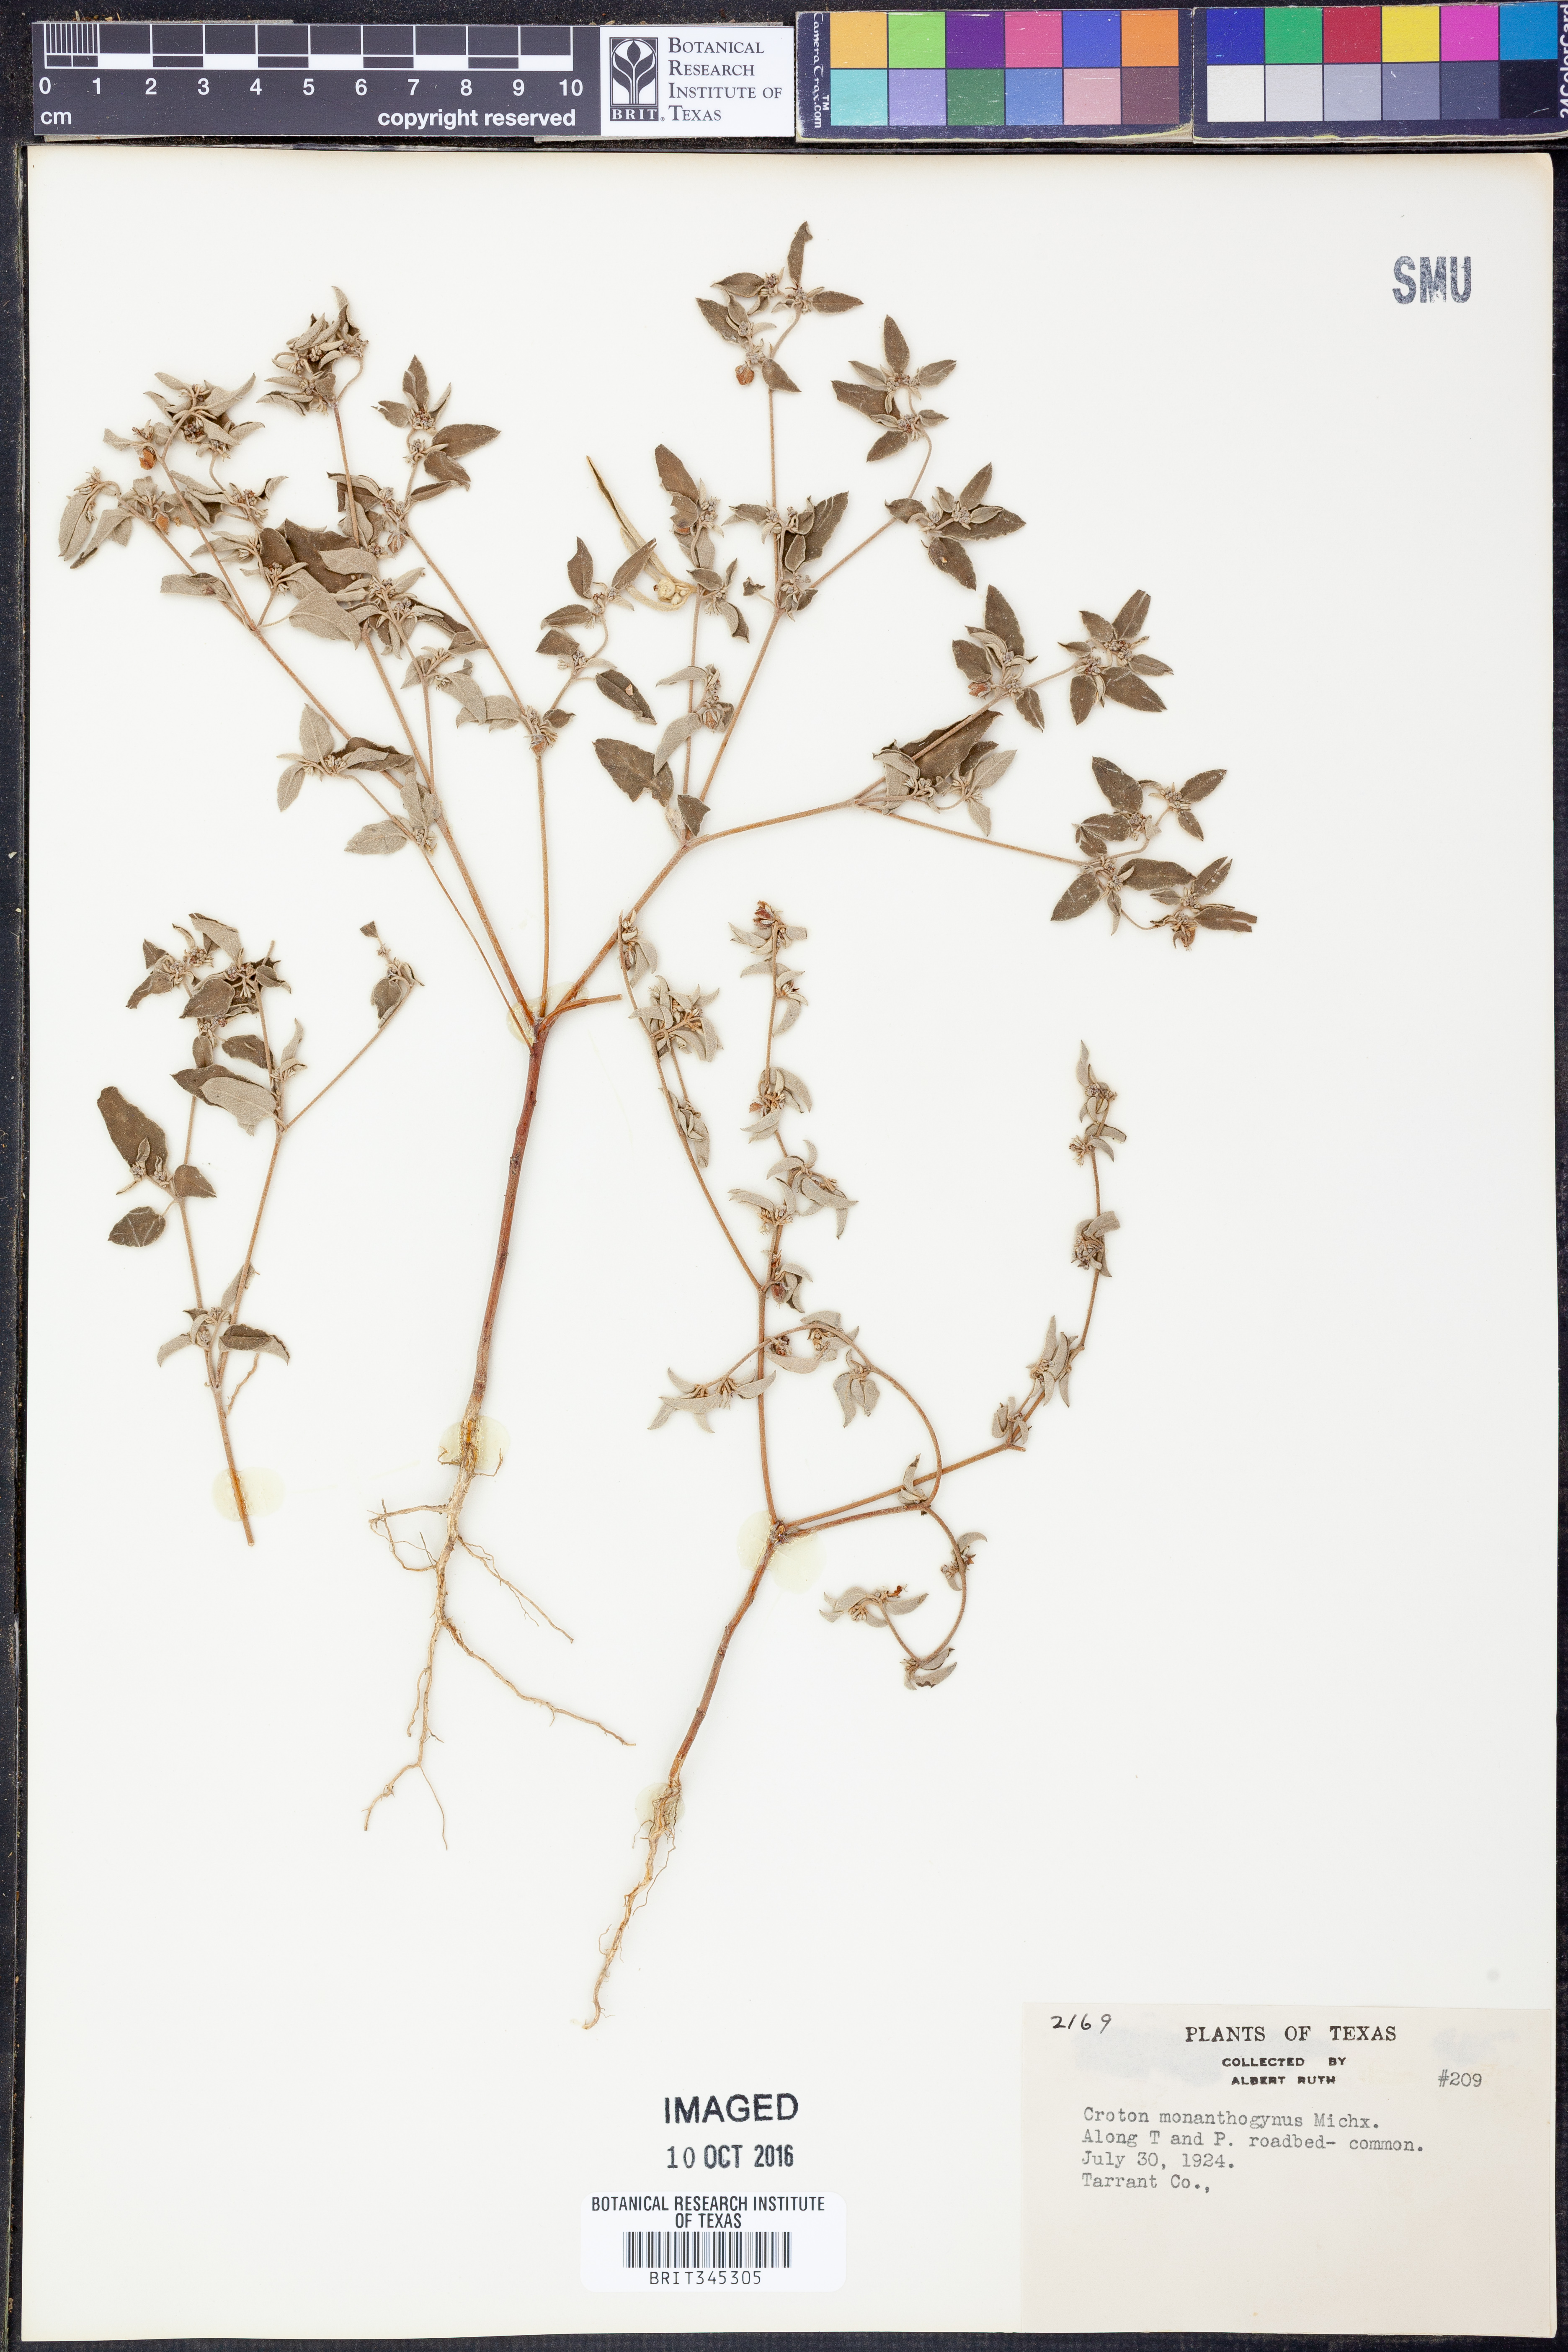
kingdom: Plantae
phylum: Tracheophyta
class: Magnoliopsida
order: Malpighiales
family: Euphorbiaceae
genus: Croton
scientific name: Croton monanthogynus
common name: One-seed croton
